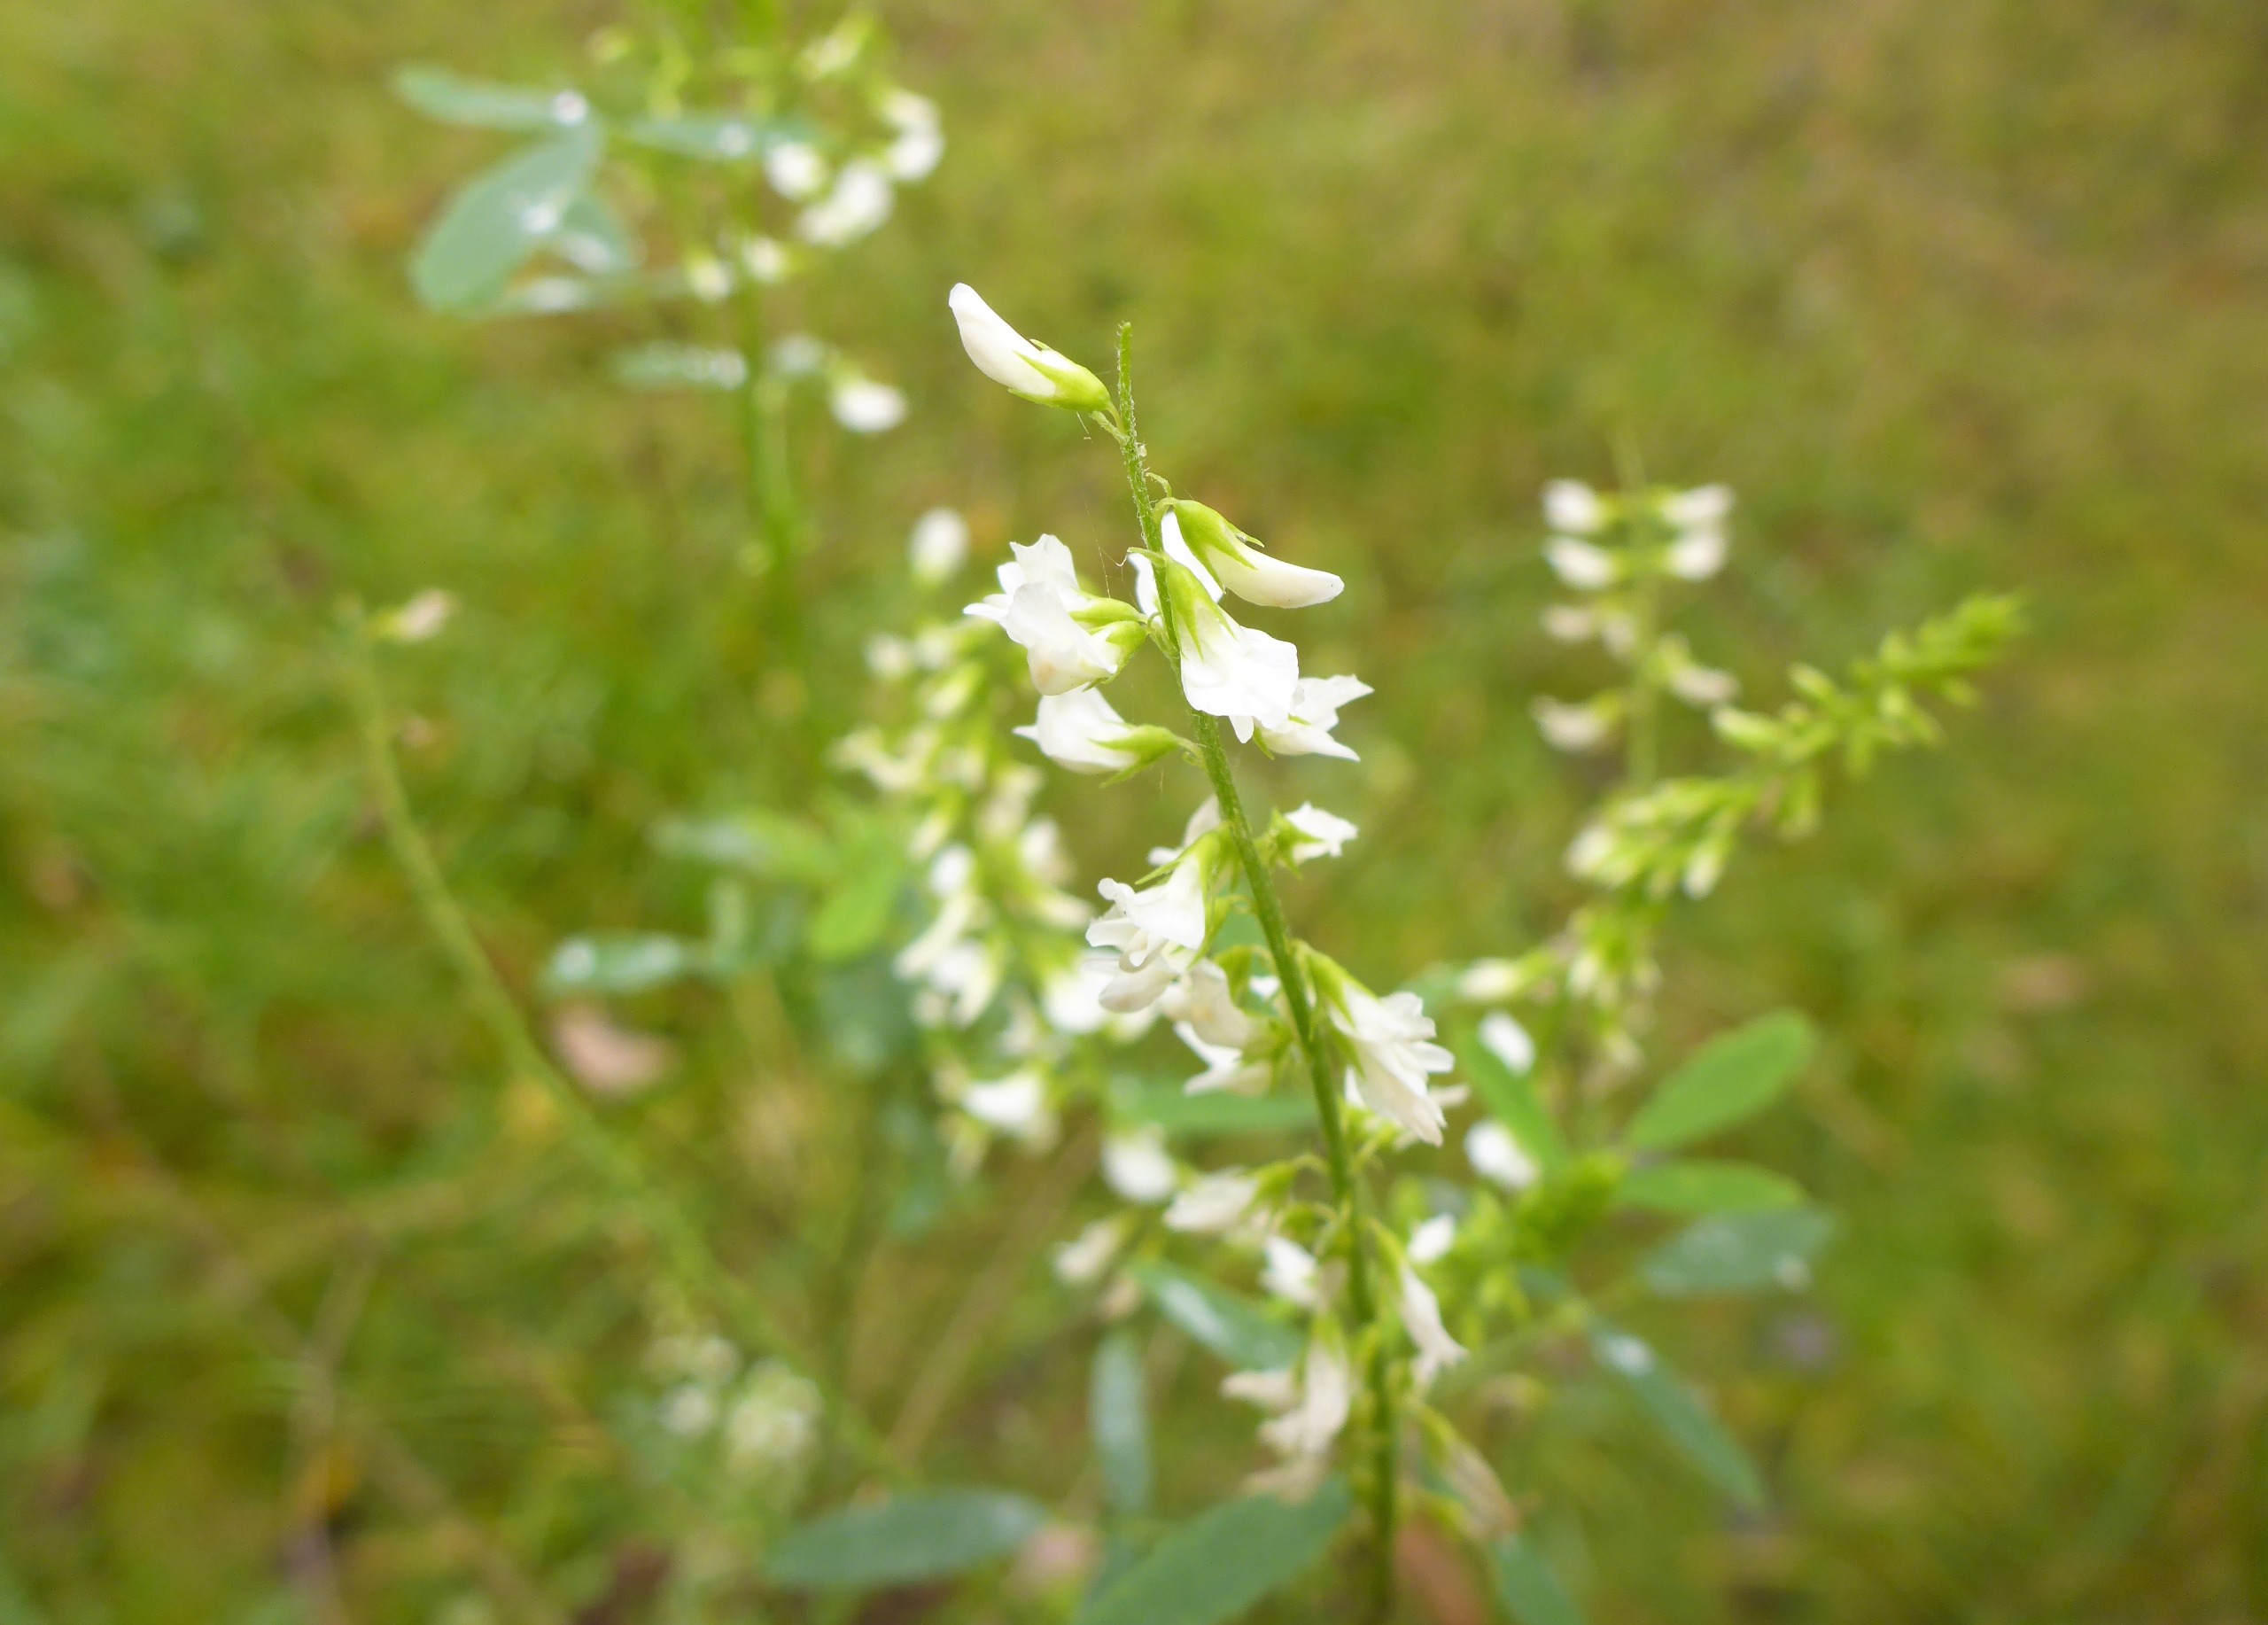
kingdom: Plantae
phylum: Tracheophyta
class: Magnoliopsida
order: Fabales
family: Fabaceae
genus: Melilotus
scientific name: Melilotus albus
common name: Hvid stenkløver
